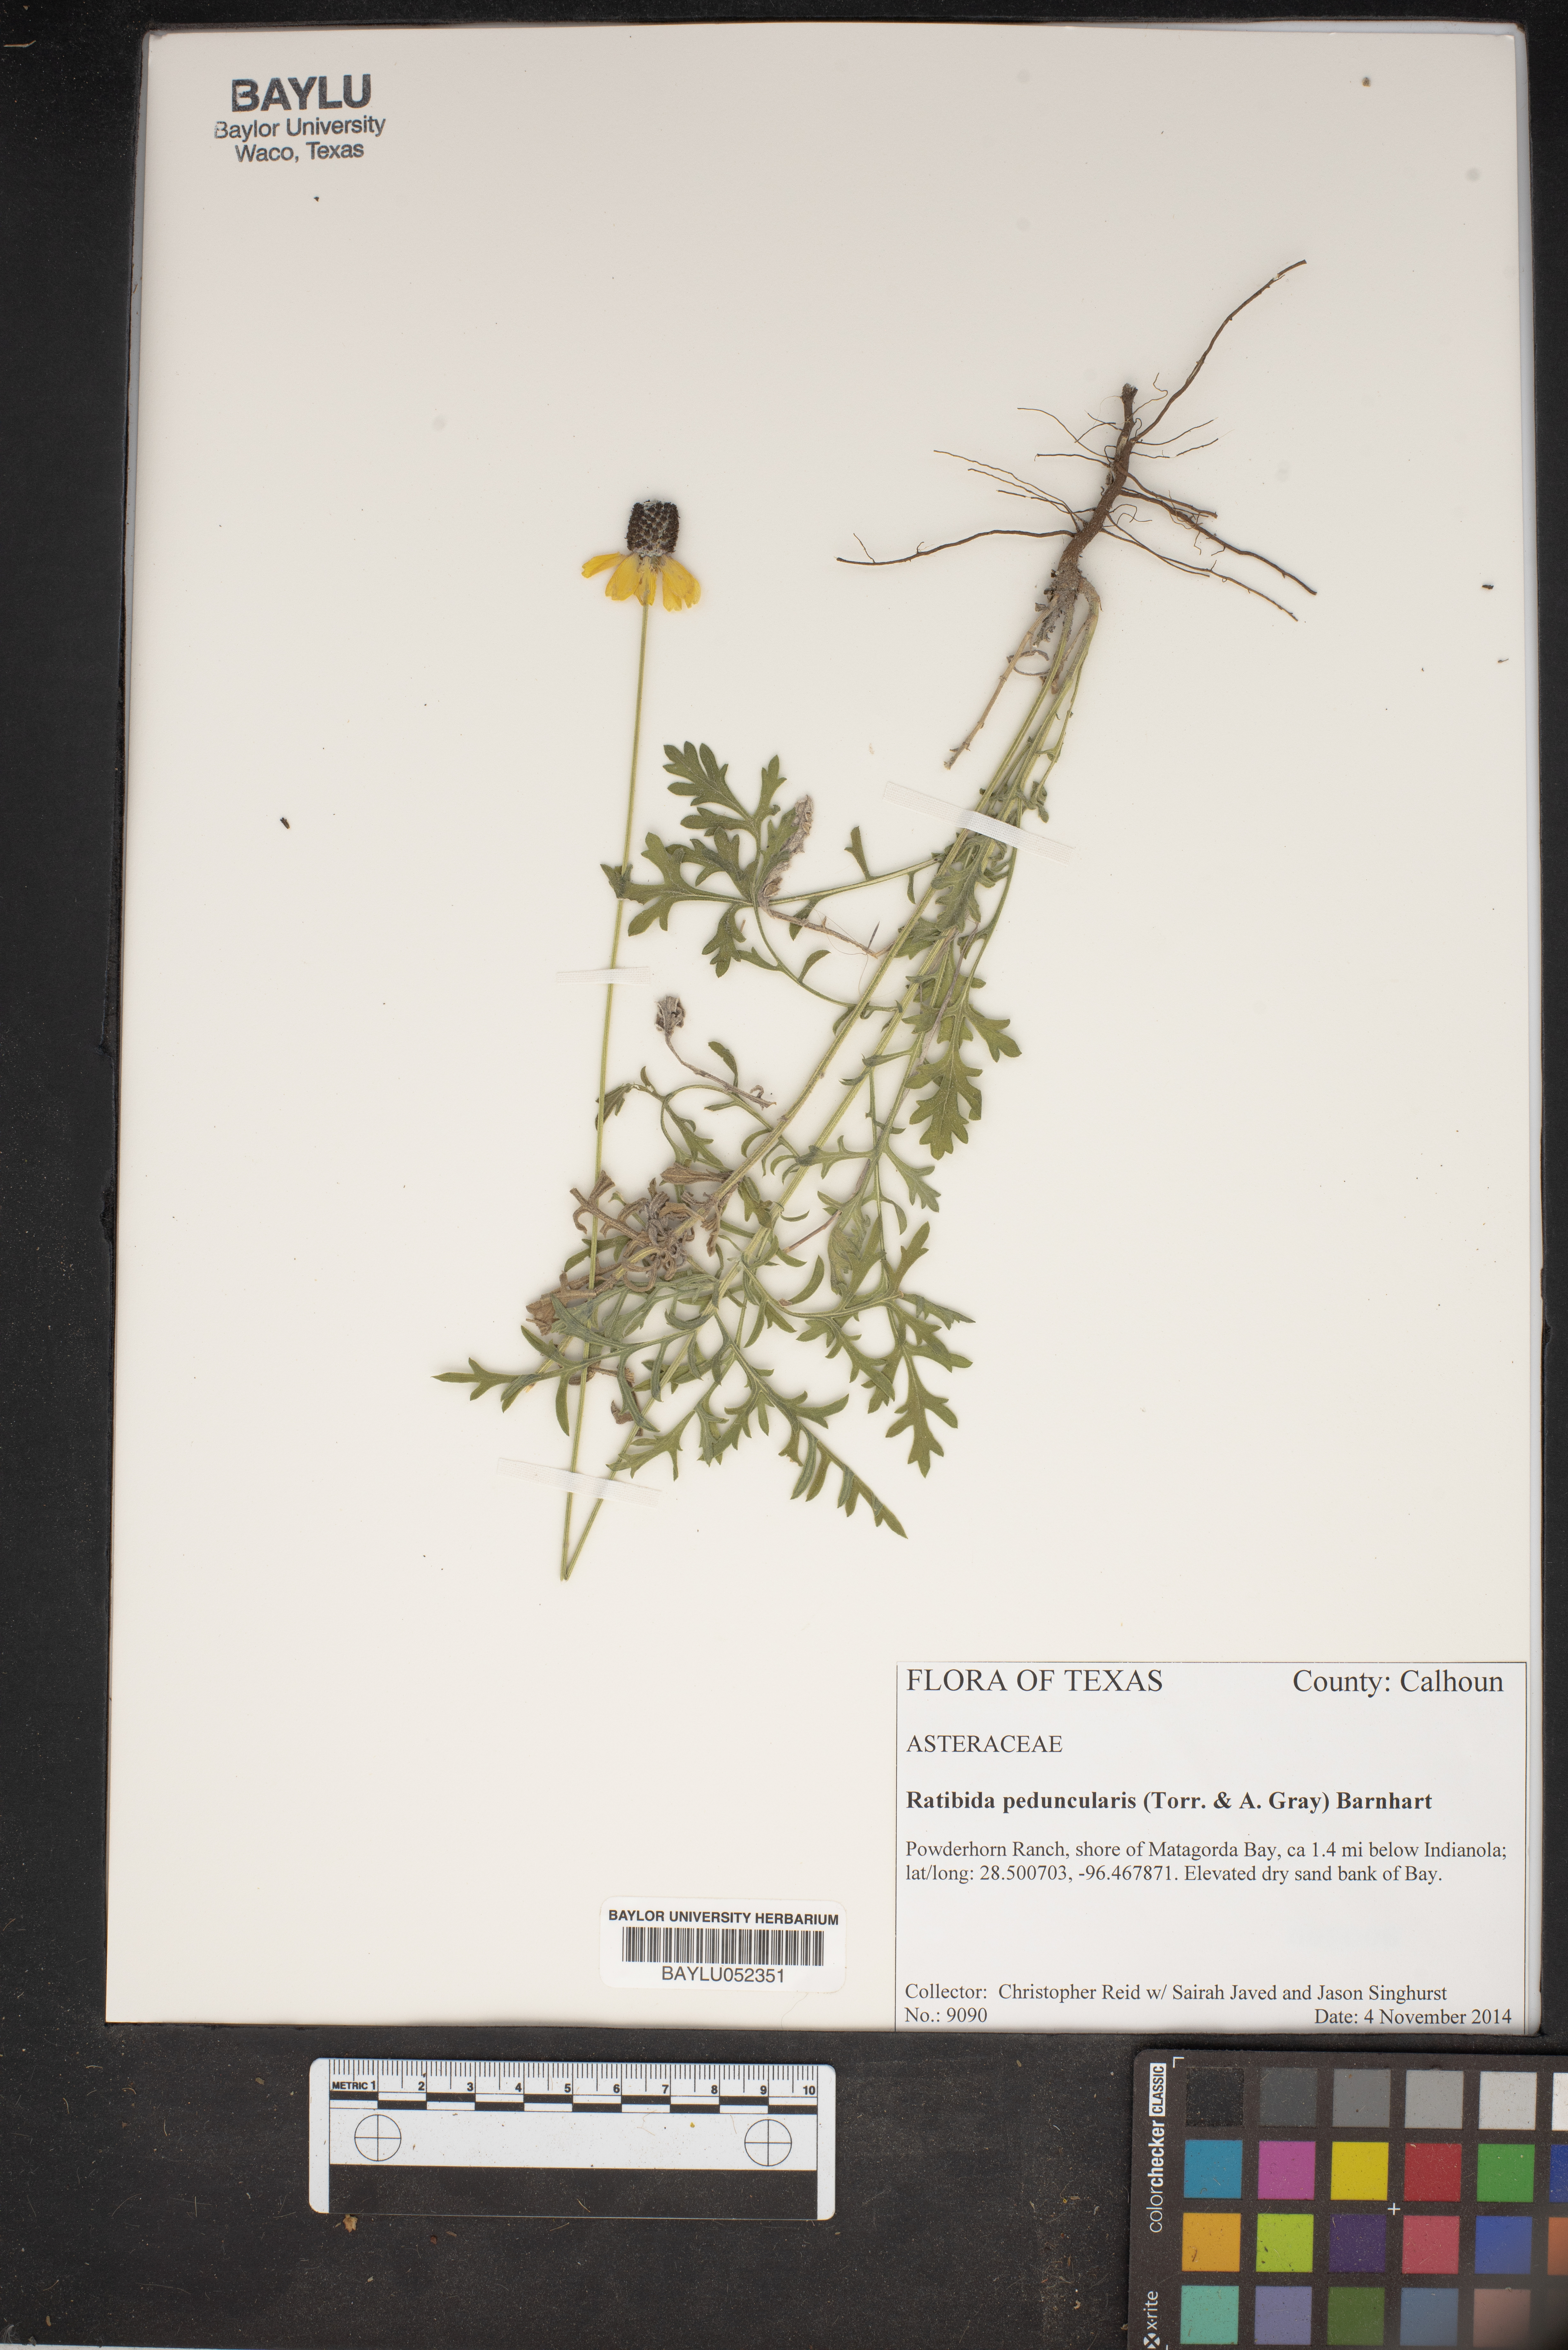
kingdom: Plantae
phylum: Tracheophyta
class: Magnoliopsida
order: Asterales
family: Asteraceae
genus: Ratibida
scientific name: Ratibida peduncularis
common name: Naked prairie-coneflower
